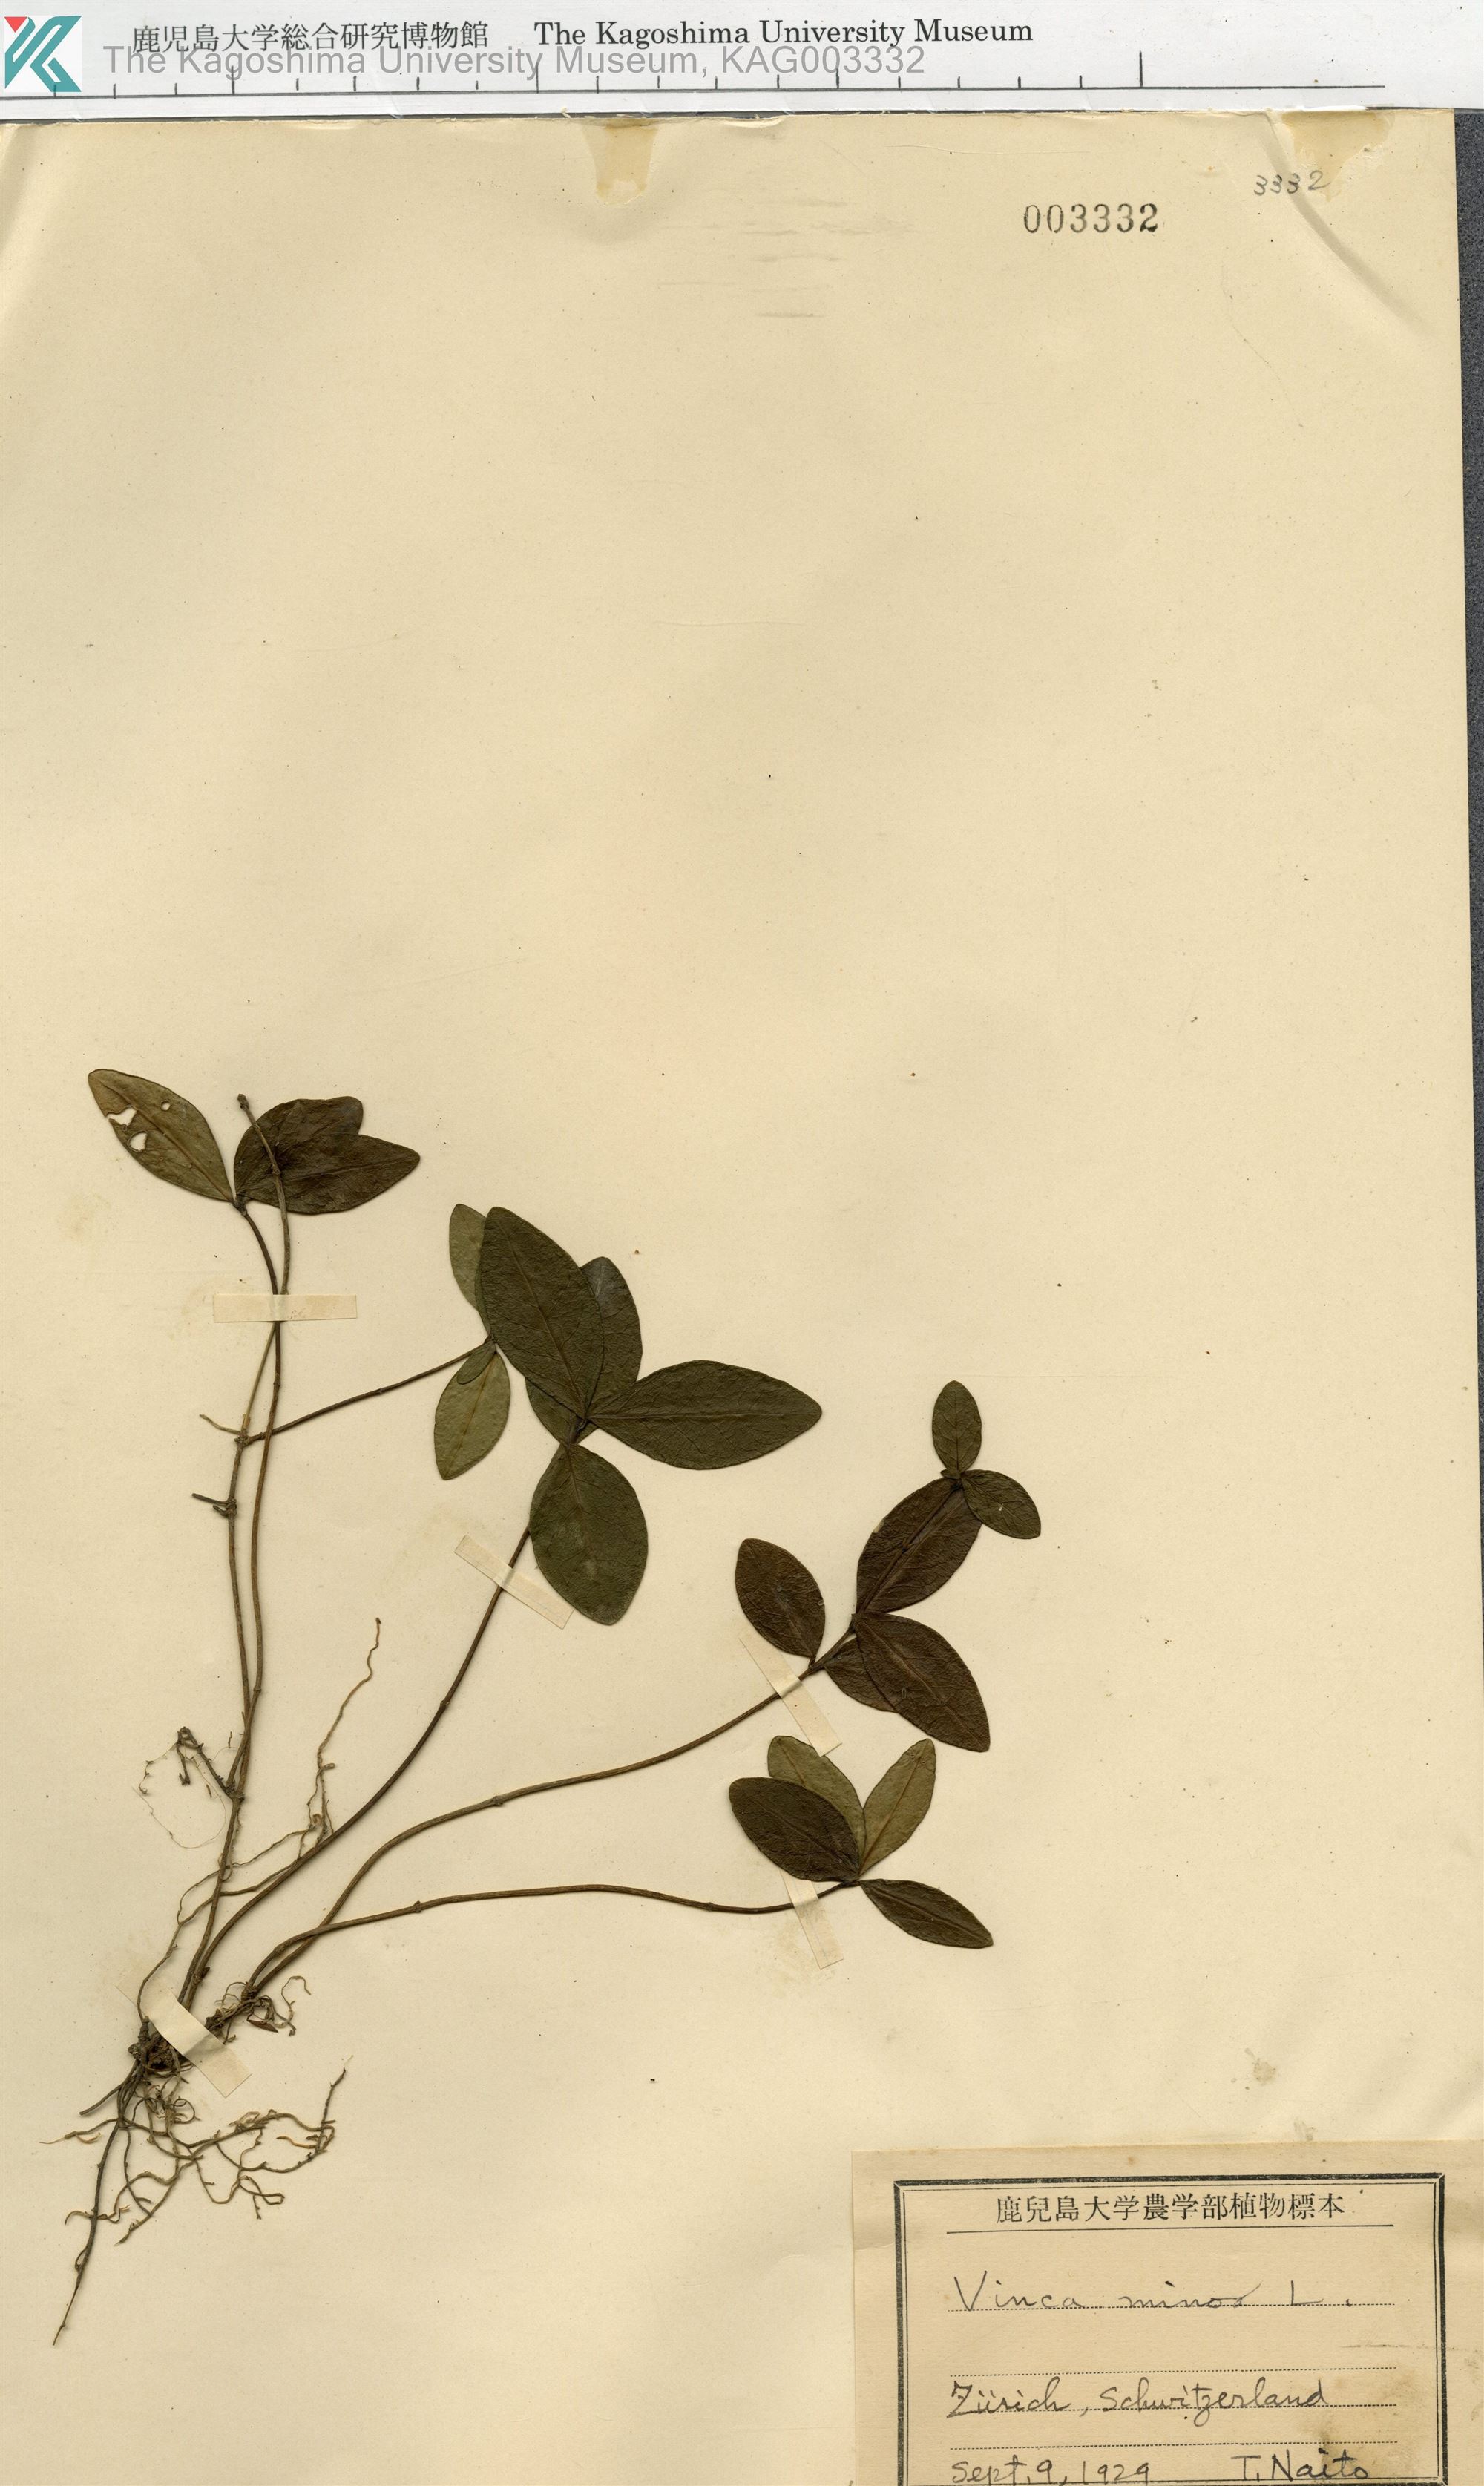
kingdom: Plantae
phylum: Tracheophyta
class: Magnoliopsida
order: Gentianales
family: Apocynaceae
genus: Vinca
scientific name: Vinca minor
